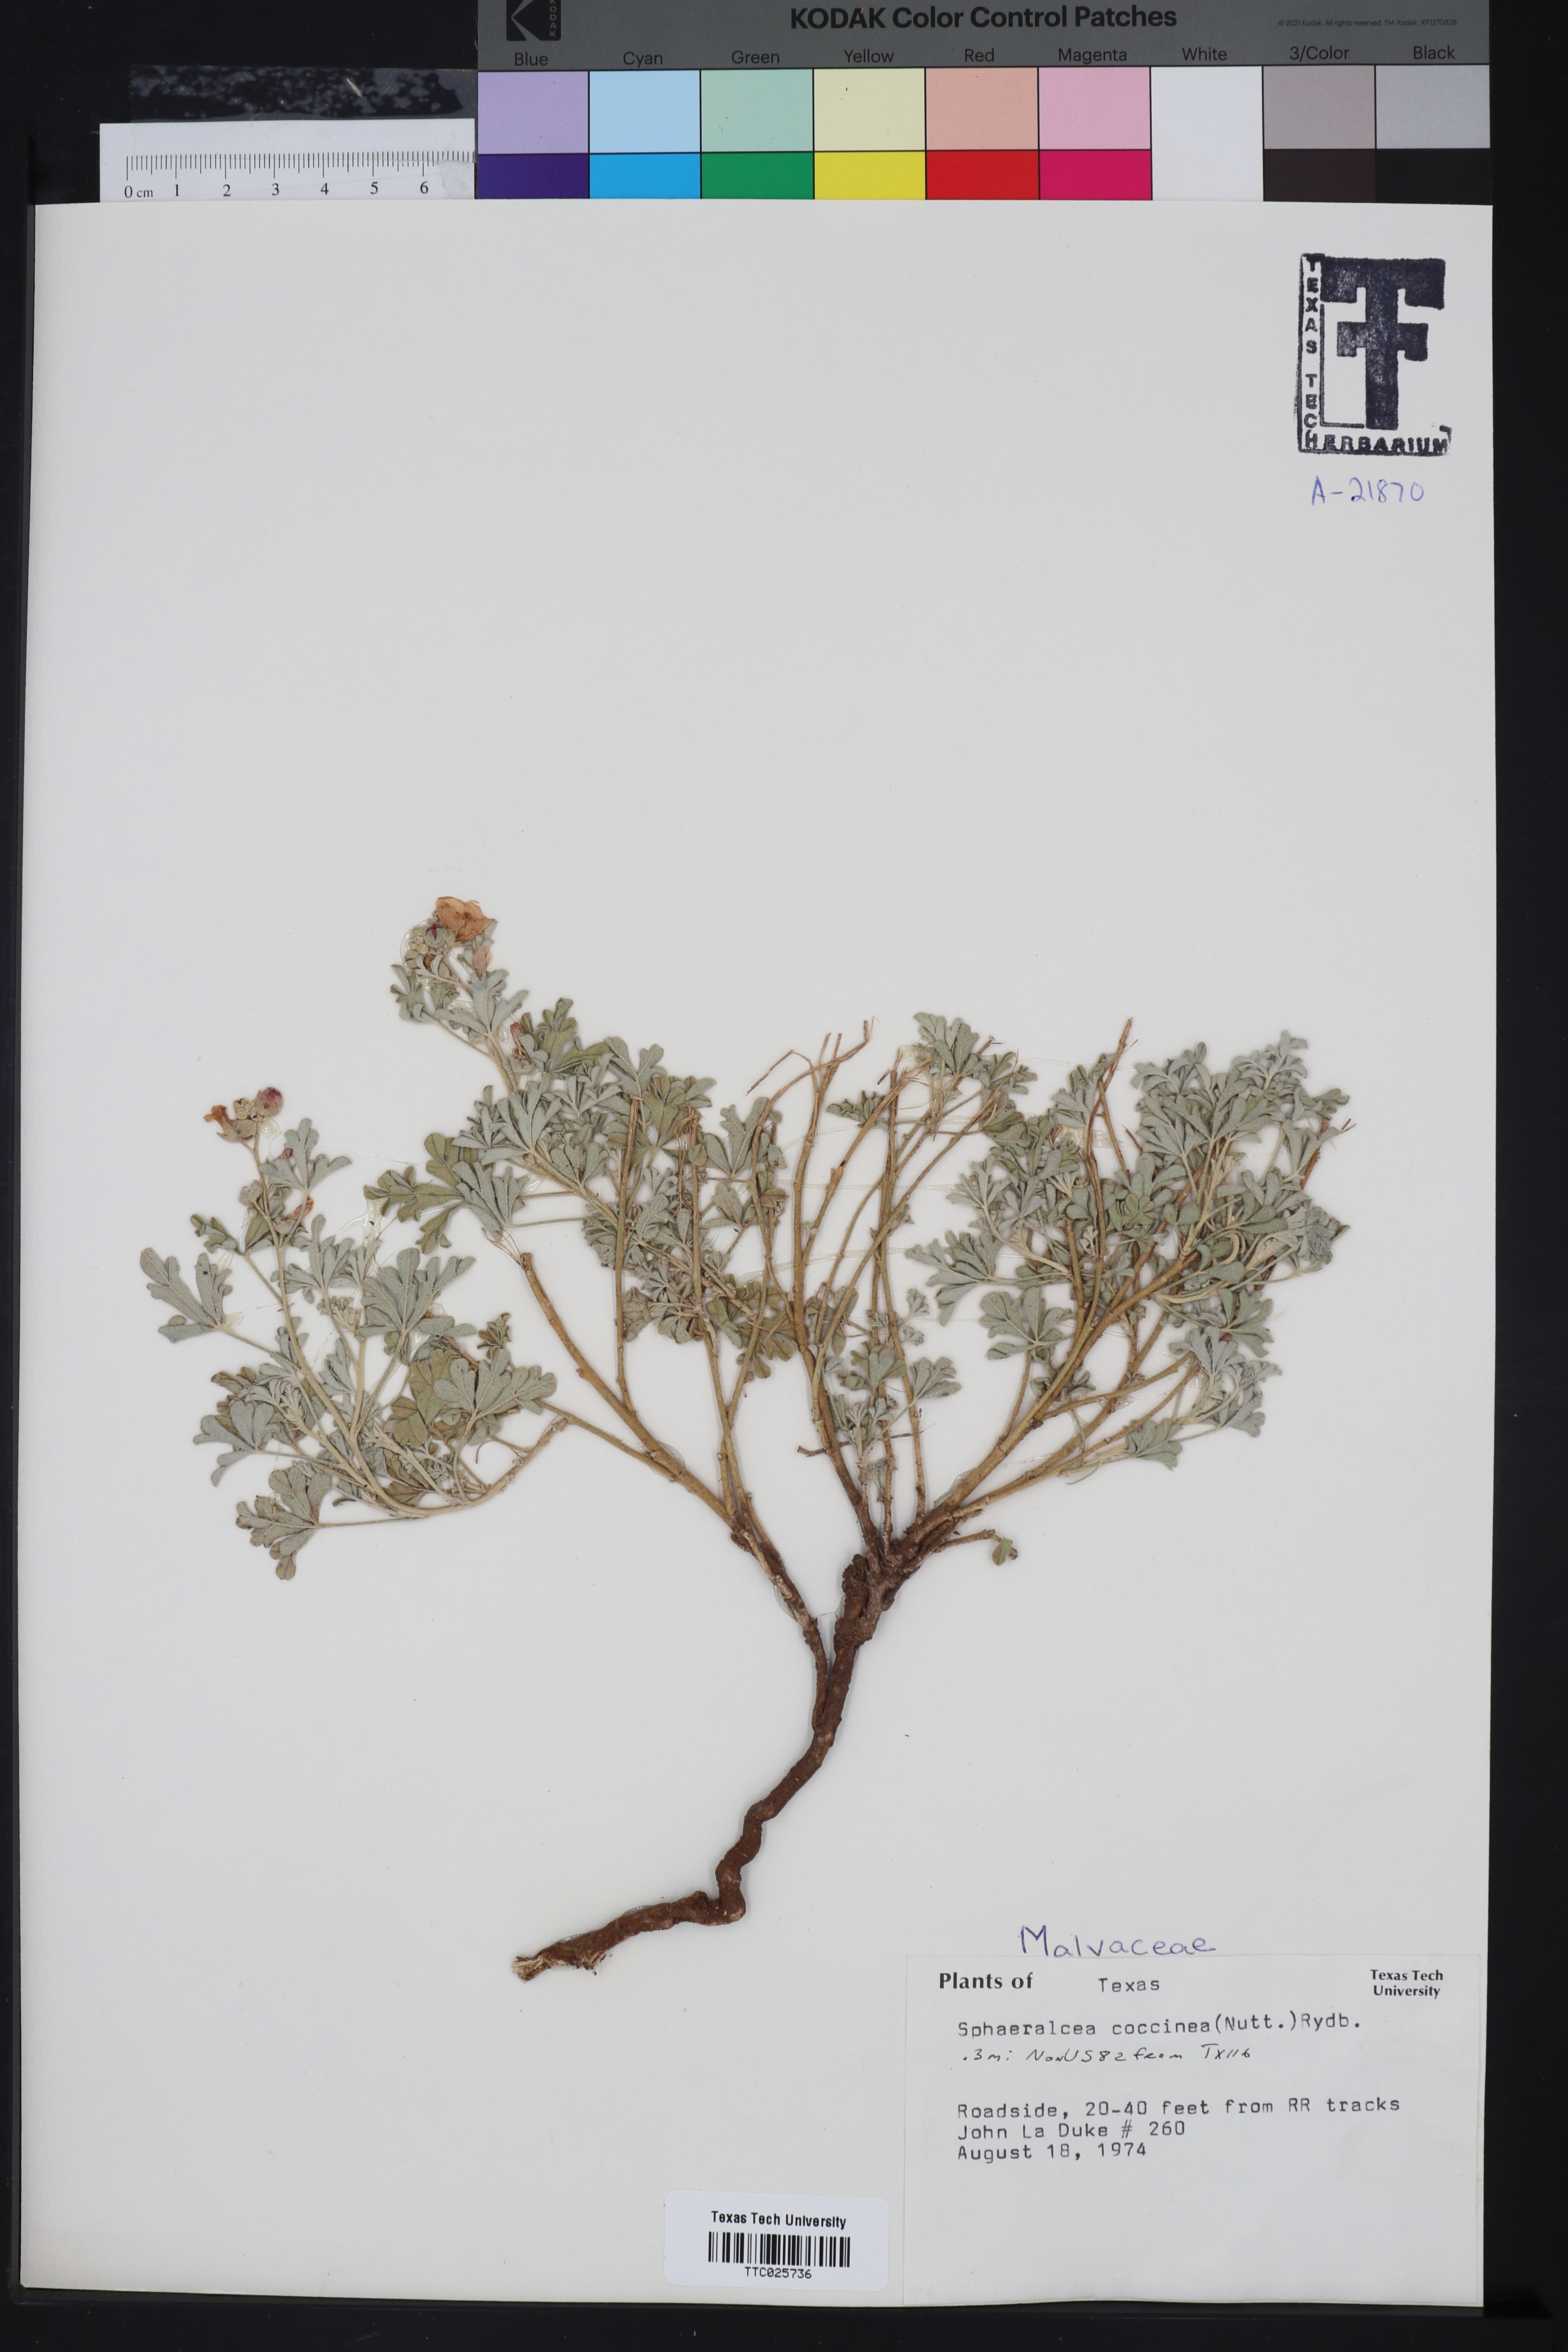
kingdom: Plantae
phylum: Tracheophyta
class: Magnoliopsida
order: Malvales
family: Malvaceae
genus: Sphaeralcea
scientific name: Sphaeralcea coccinea
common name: Moss-rose
